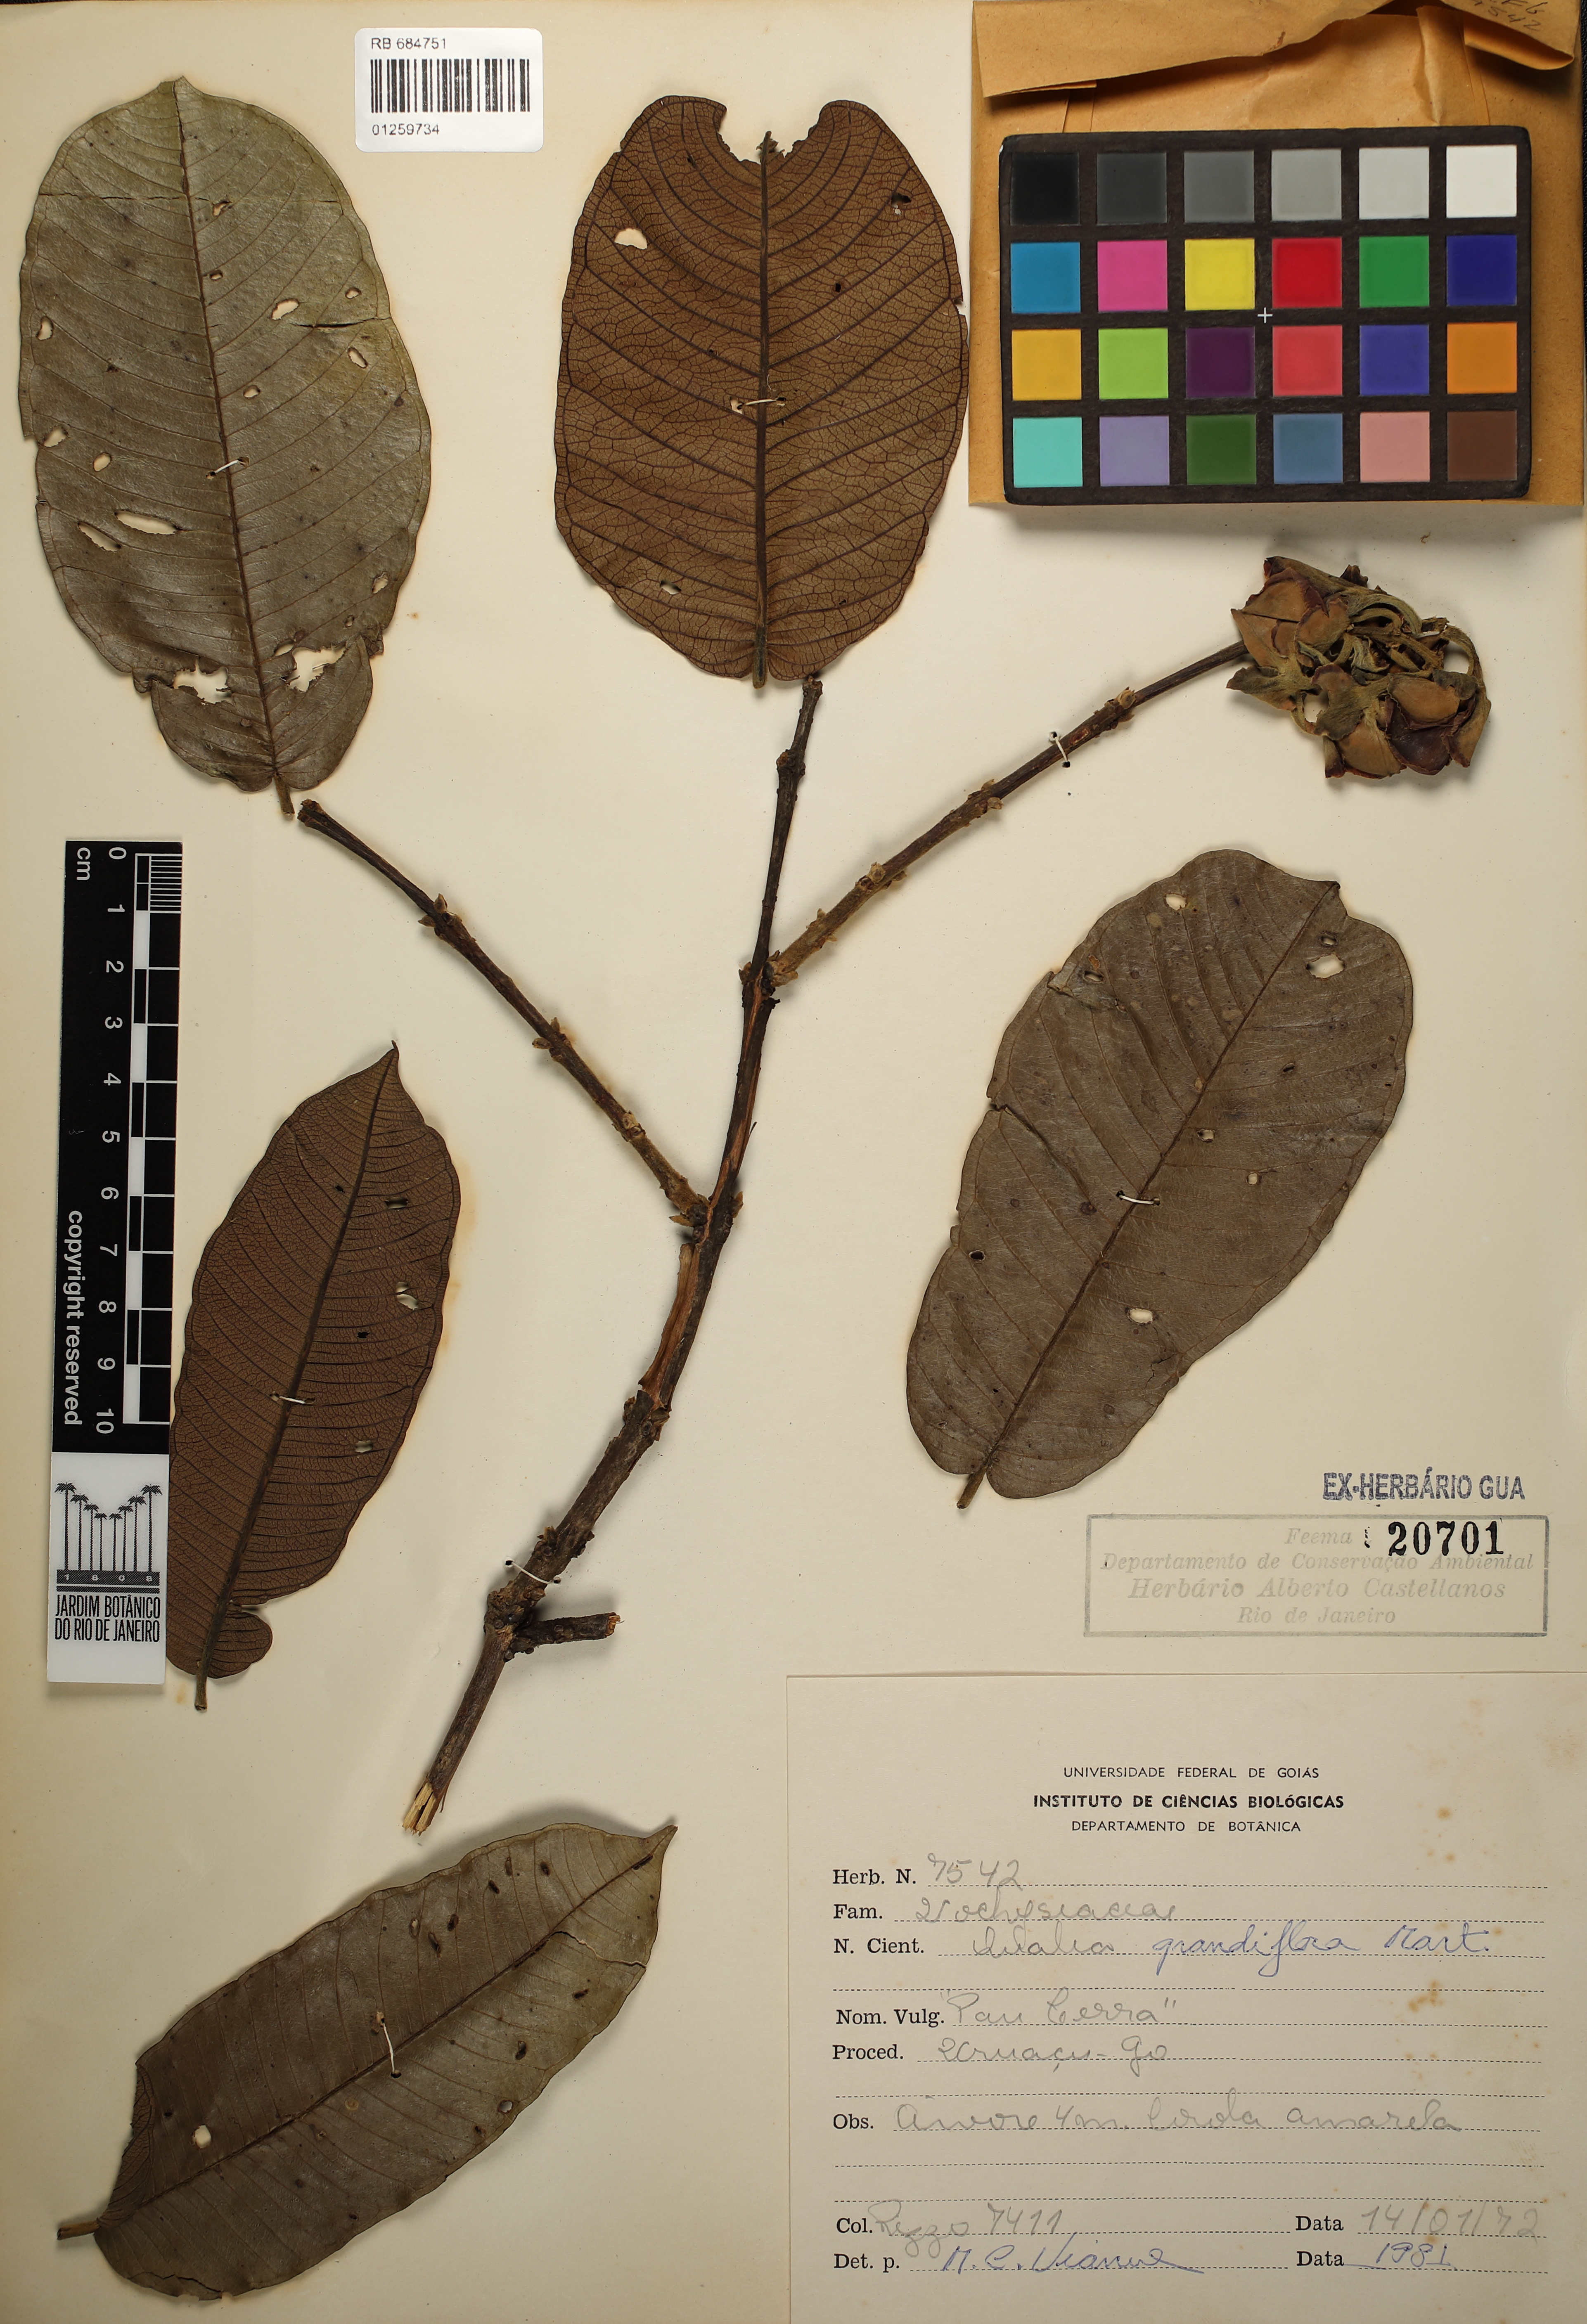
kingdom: Plantae
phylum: Tracheophyta
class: Magnoliopsida
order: Myrtales
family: Vochysiaceae
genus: Qualea
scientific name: Qualea grandiflora
